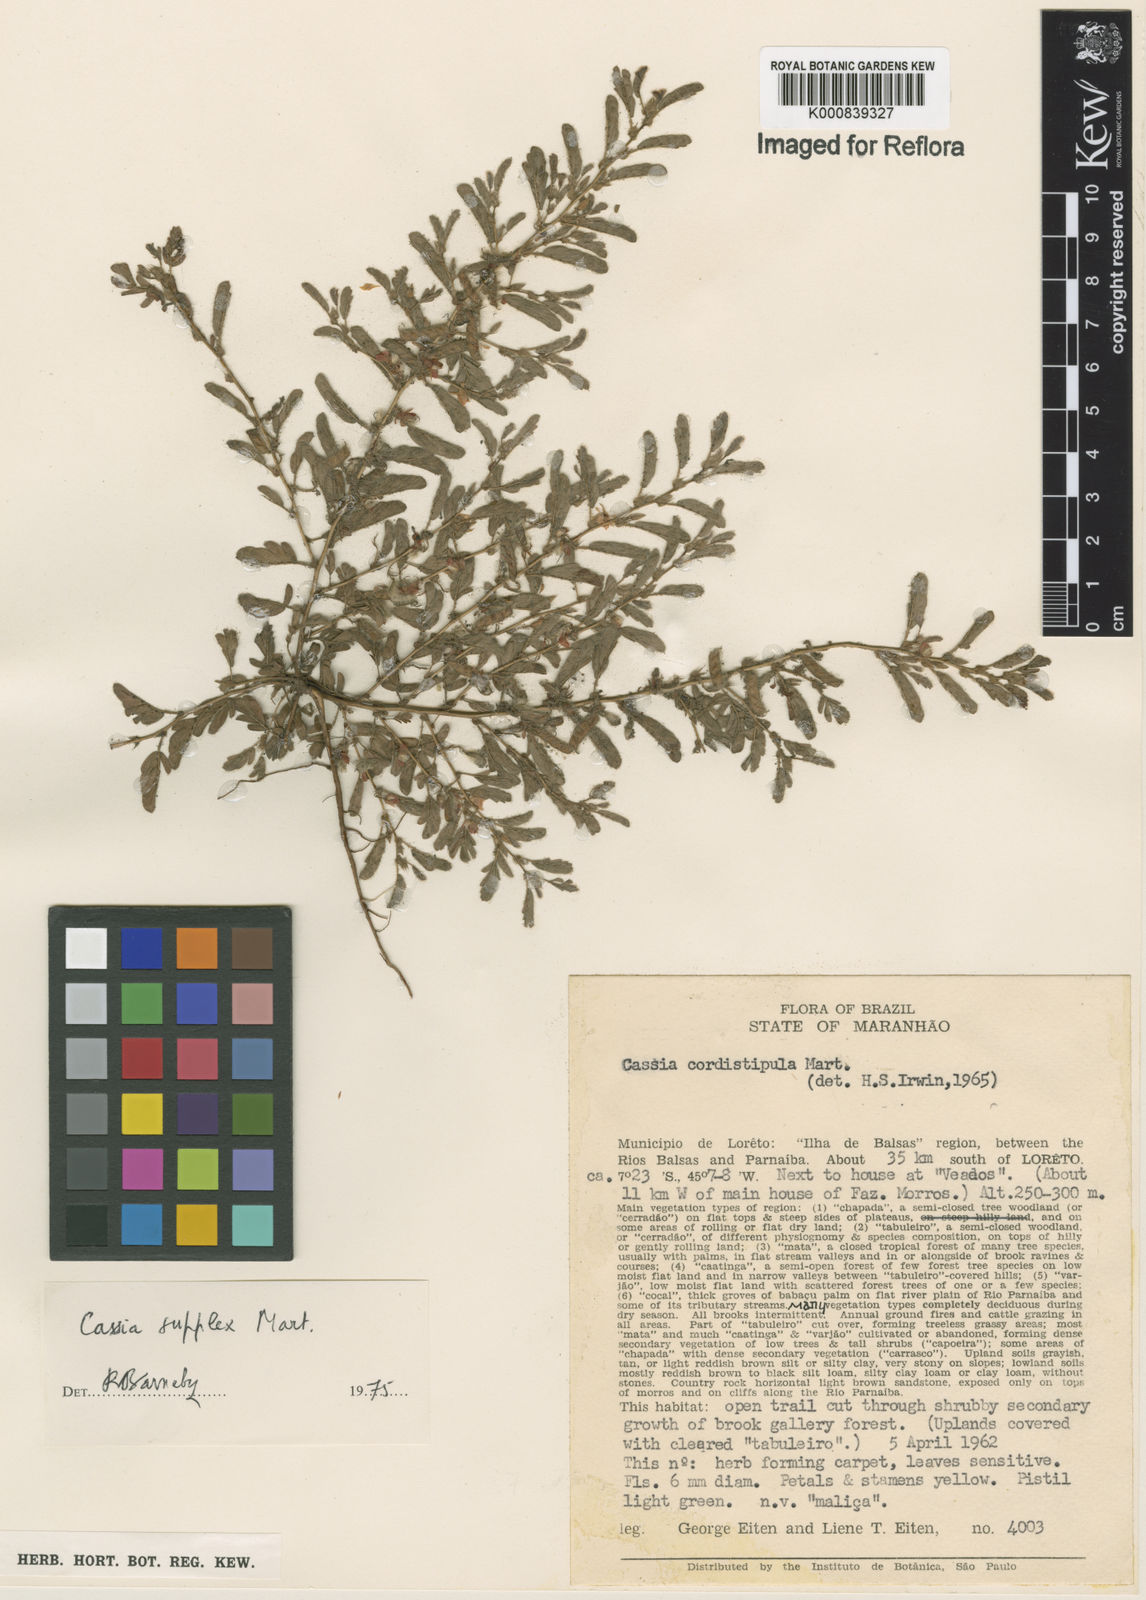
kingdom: Plantae
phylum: Tracheophyta
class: Magnoliopsida
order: Fabales
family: Fabaceae
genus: Chamaecrista
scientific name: Chamaecrista supplex
